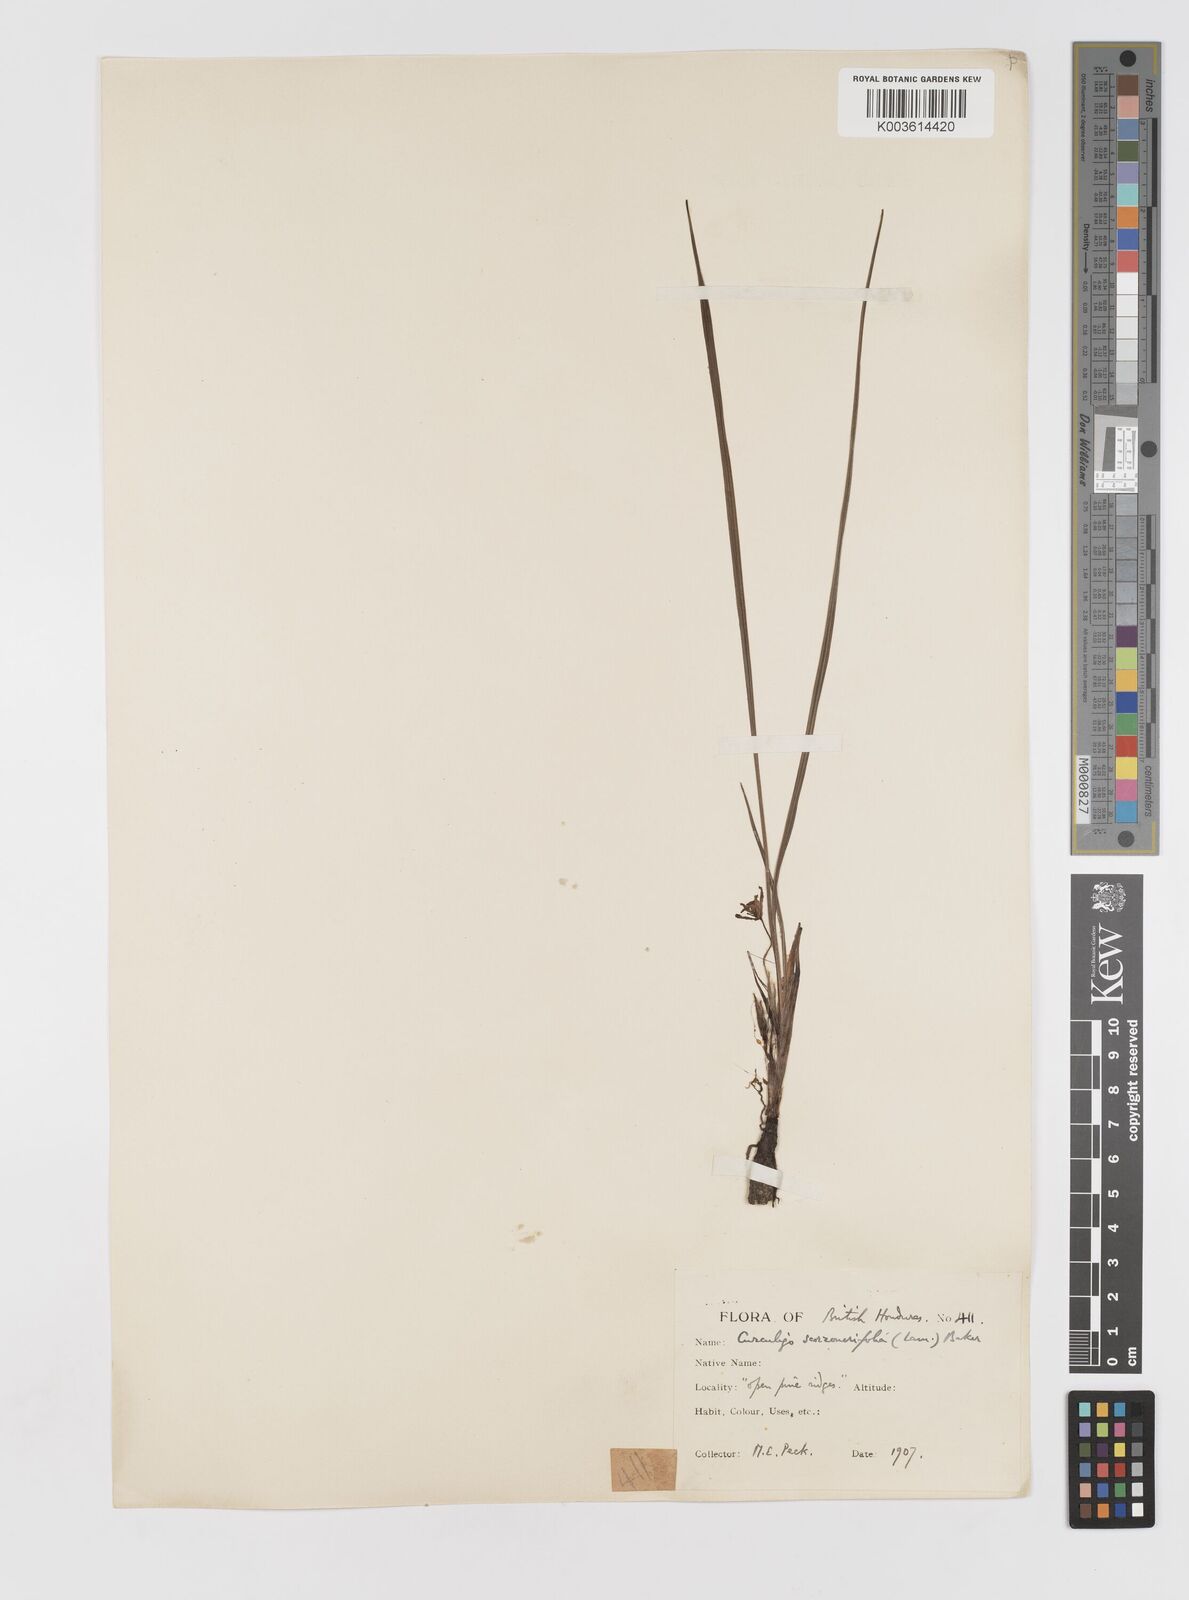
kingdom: Plantae
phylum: Tracheophyta
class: Liliopsida
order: Asparagales
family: Hypoxidaceae
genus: Curculigo
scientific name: Curculigo scorzonerifolia
